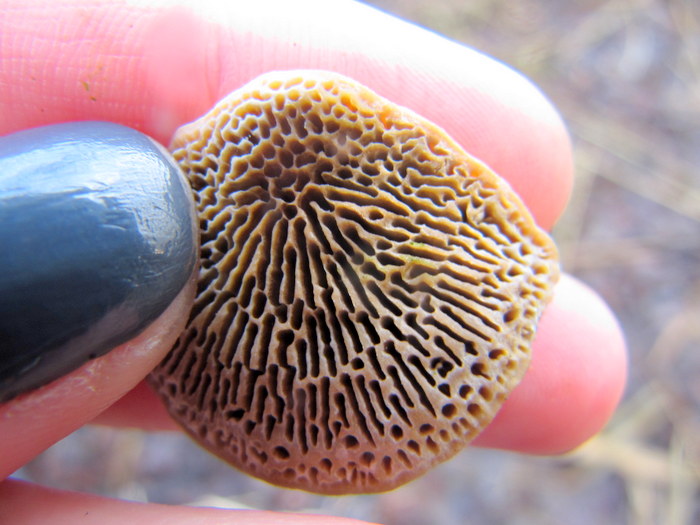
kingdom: Fungi
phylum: Basidiomycota
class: Agaricomycetes
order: Polyporales
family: Polyporaceae
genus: Daedaleopsis
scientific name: Daedaleopsis confragosa
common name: rødmende læderporesvamp
